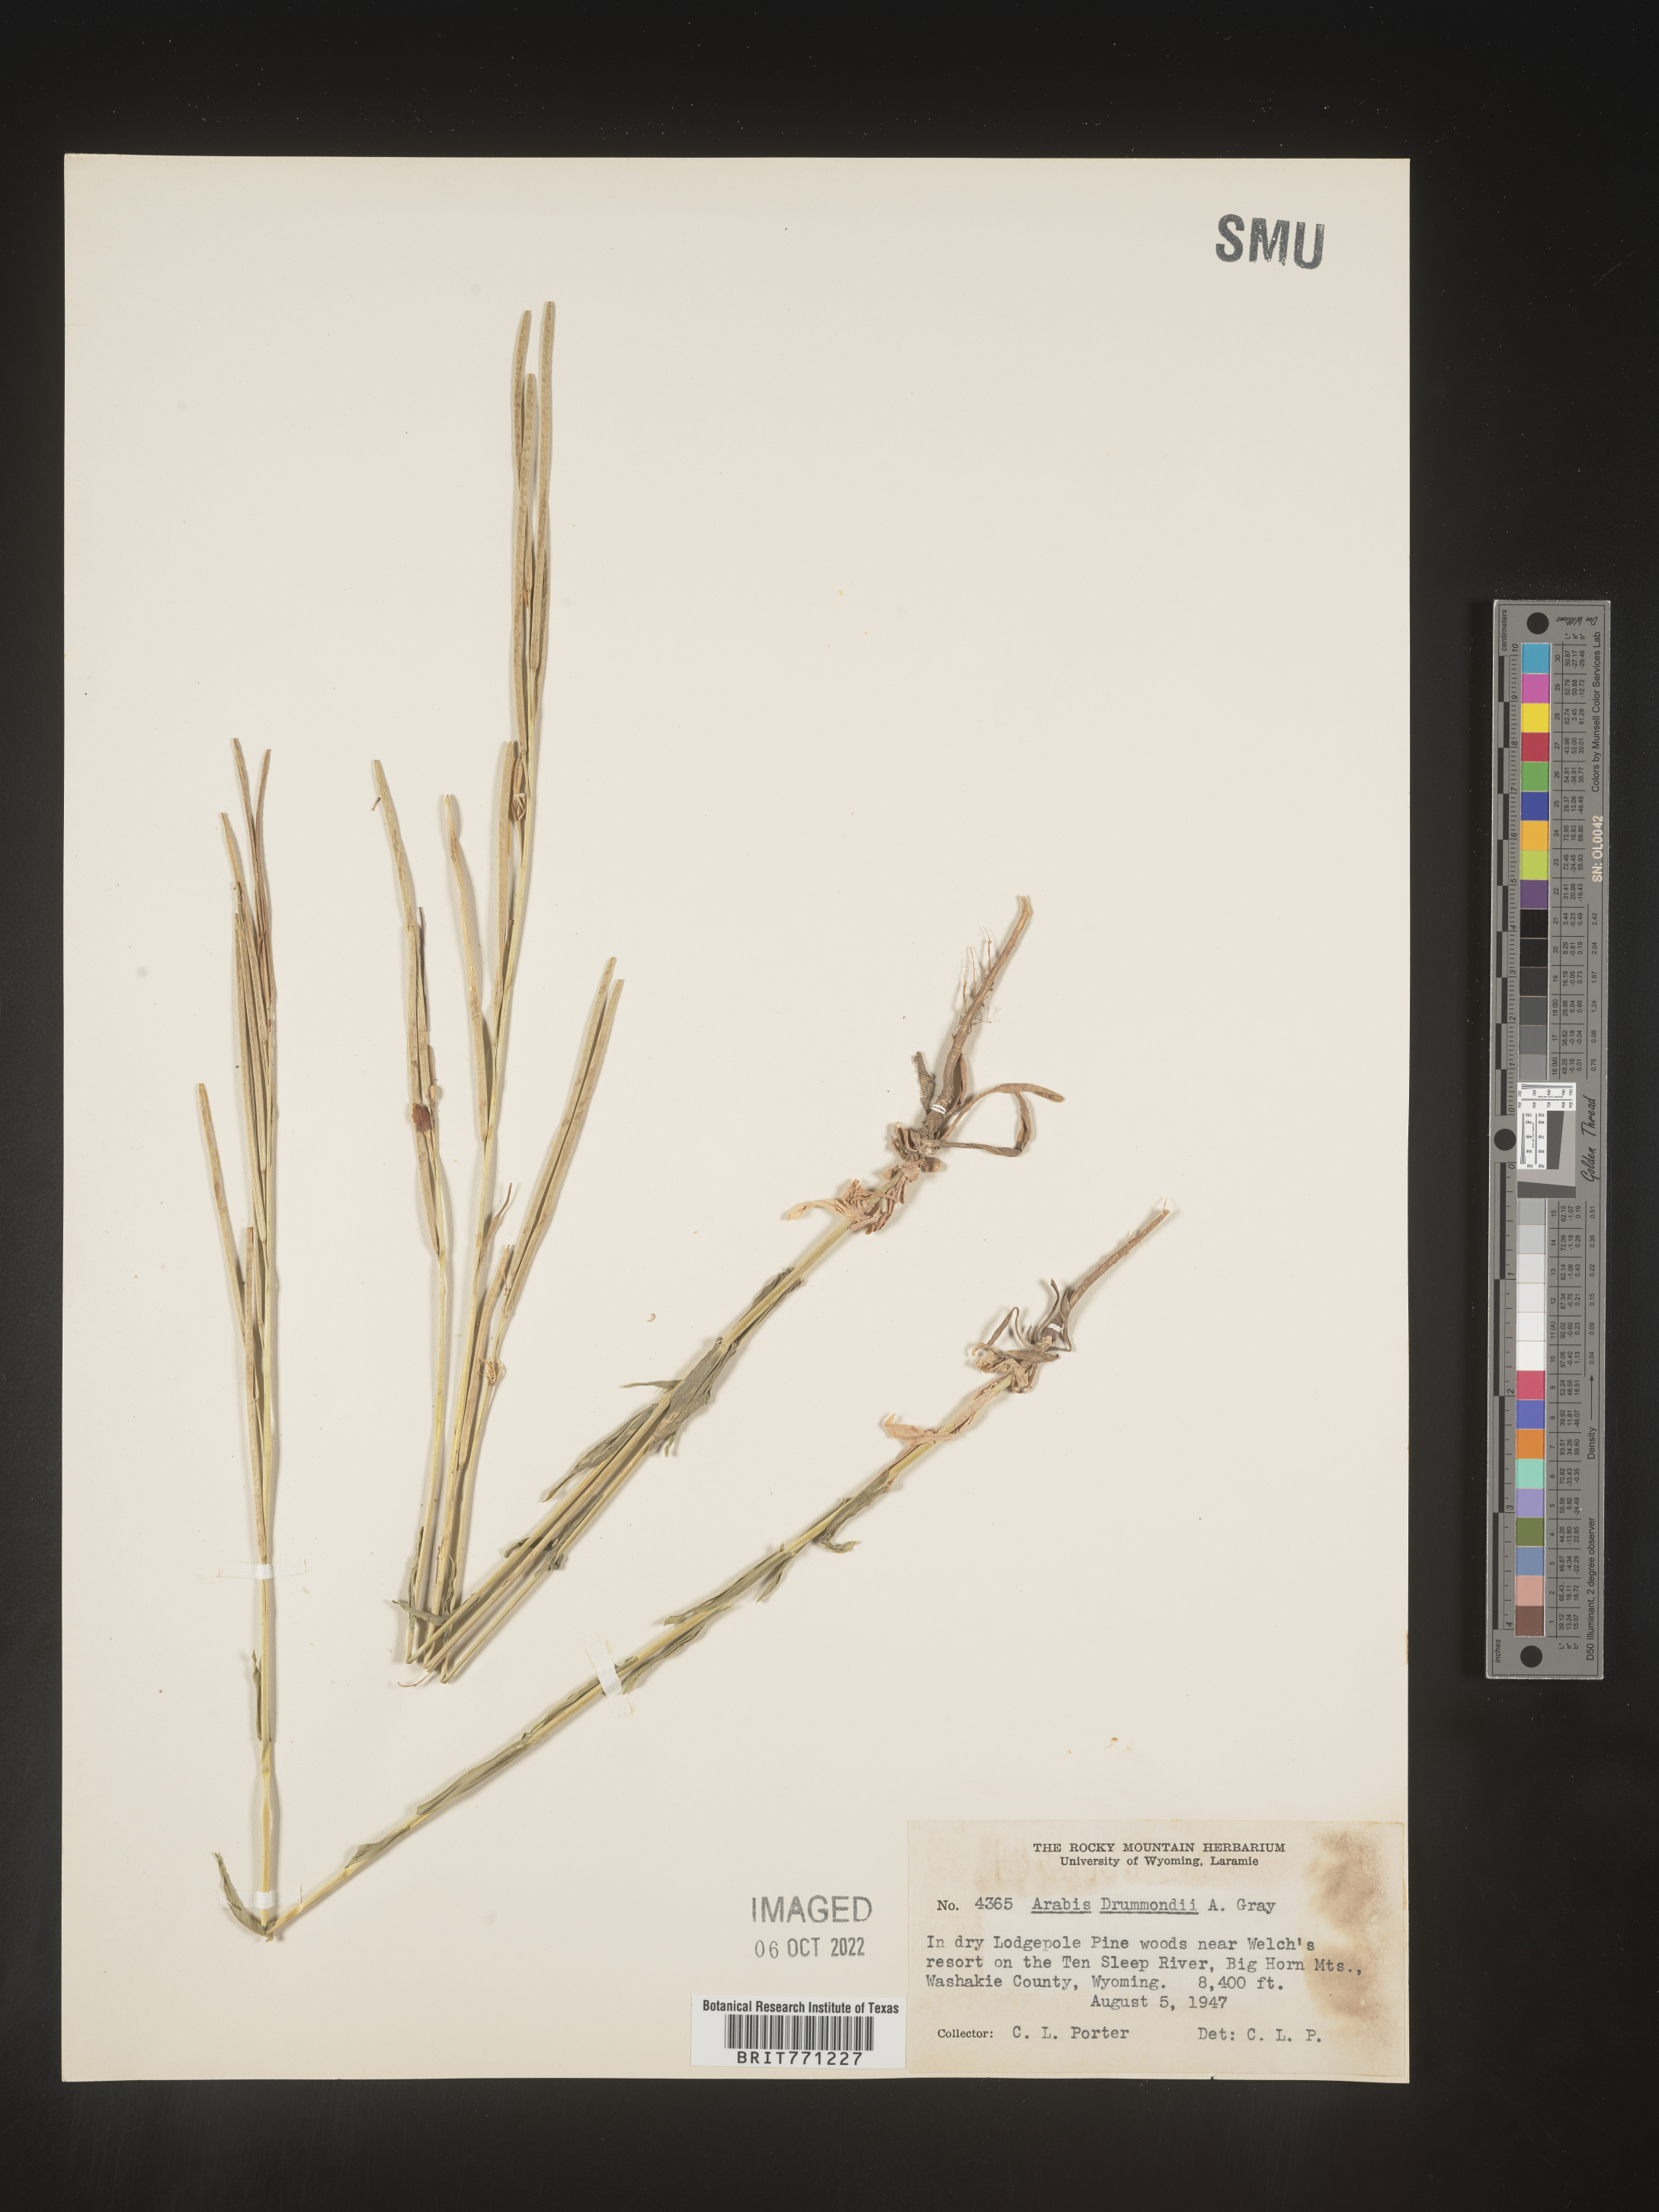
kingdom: Plantae
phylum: Tracheophyta
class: Magnoliopsida
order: Brassicales
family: Brassicaceae
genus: Boechera
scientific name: Boechera stricta
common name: Canadian rockcress
